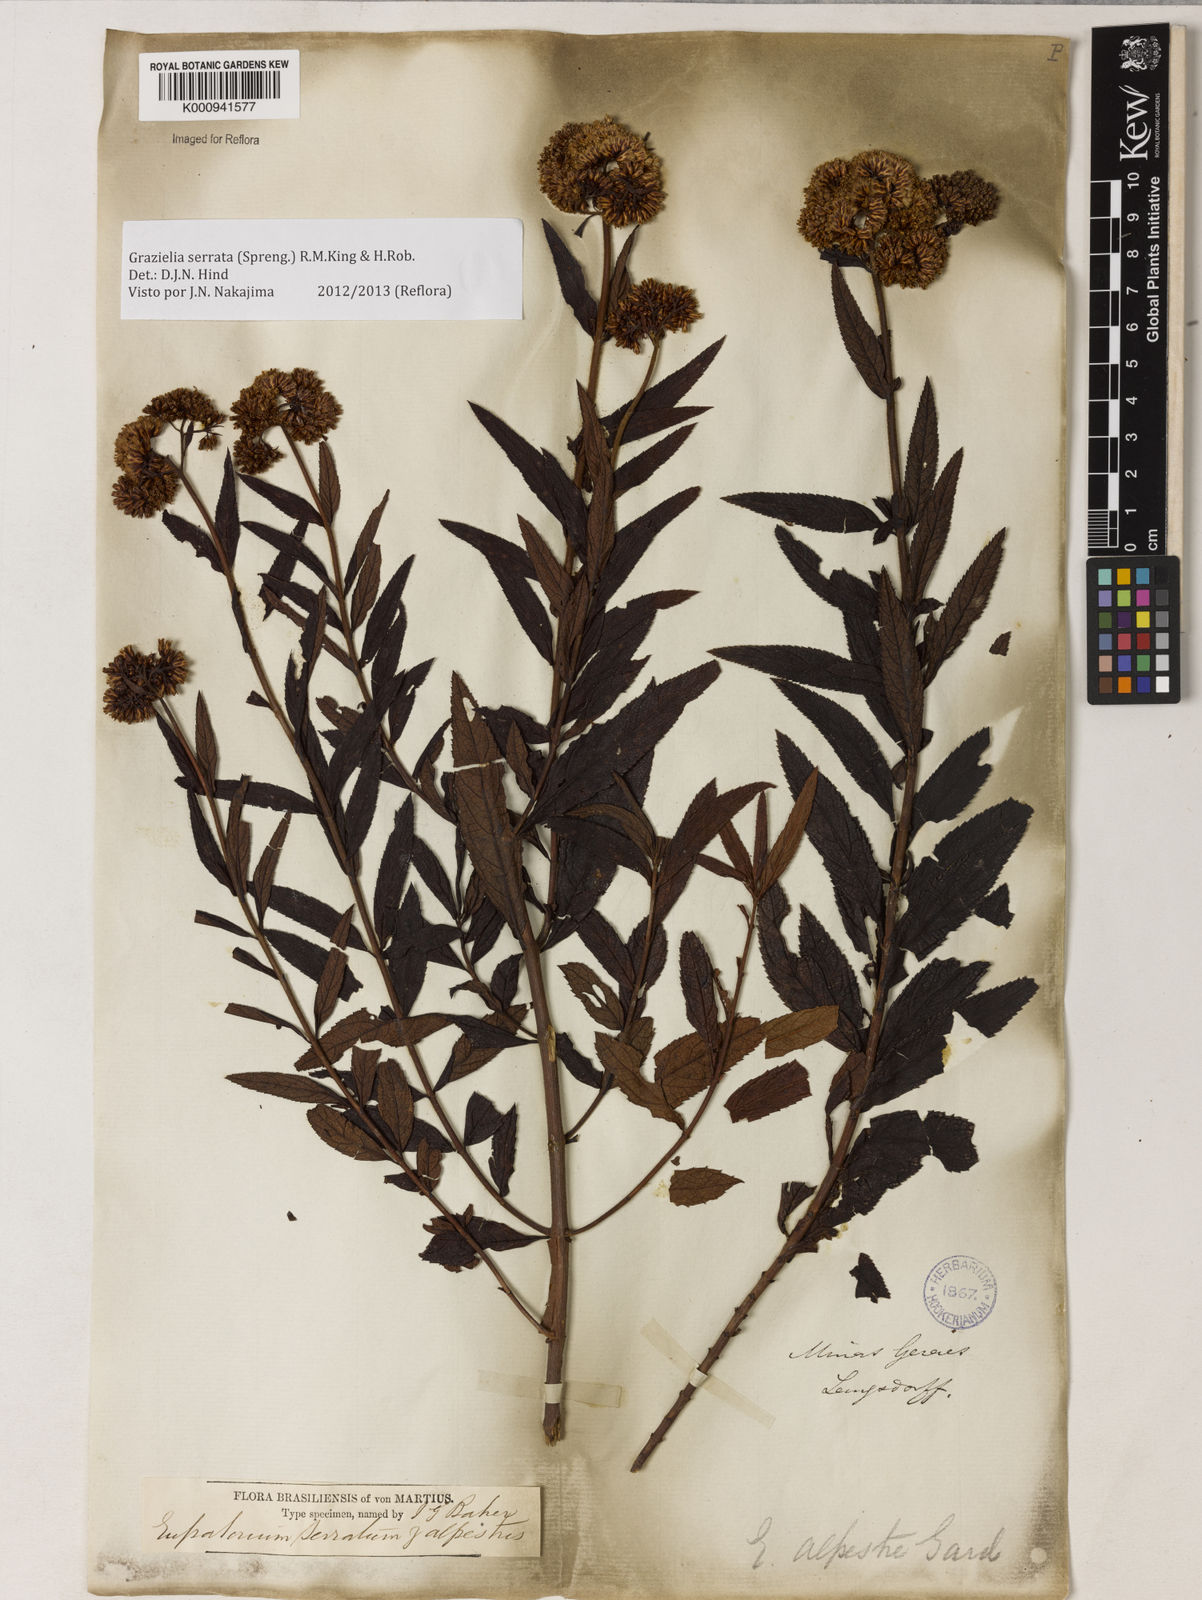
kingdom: Plantae
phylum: Tracheophyta
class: Magnoliopsida
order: Asterales
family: Asteraceae
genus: Grazielia
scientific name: Grazielia serrata
